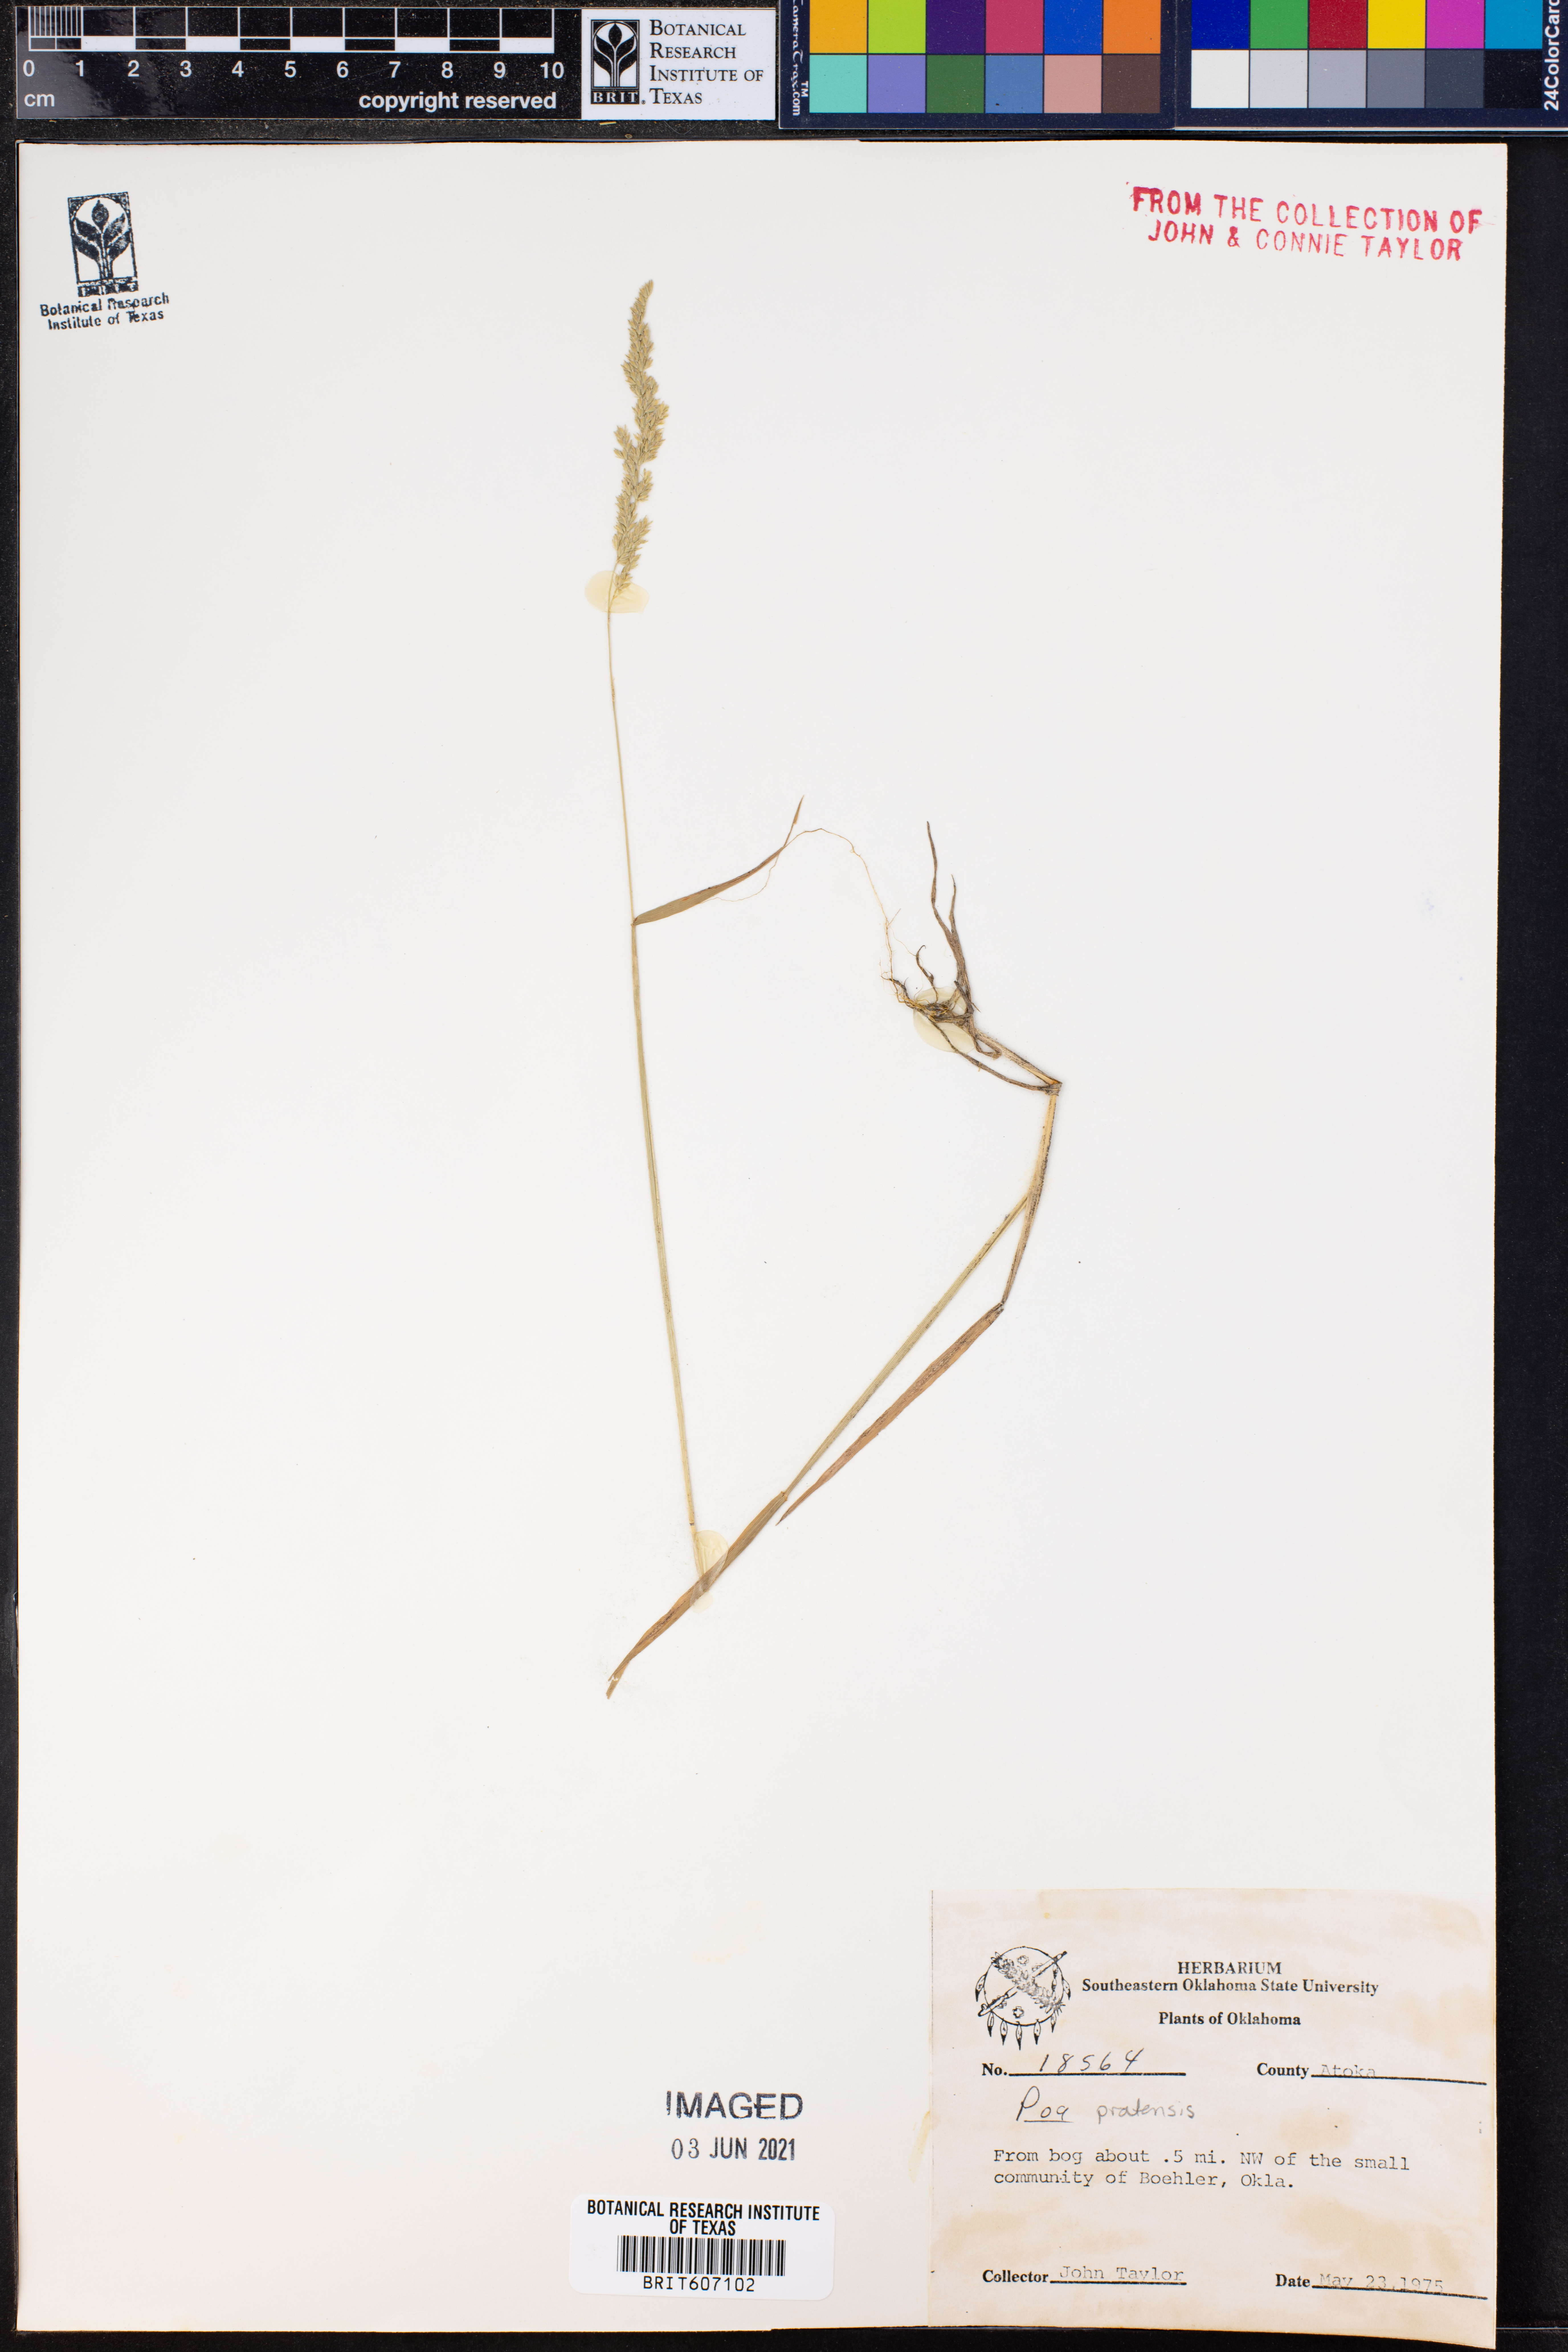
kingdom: Plantae
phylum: Tracheophyta
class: Liliopsida
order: Poales
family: Poaceae
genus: Poa
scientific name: Poa pratensis
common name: Kentucky bluegrass
